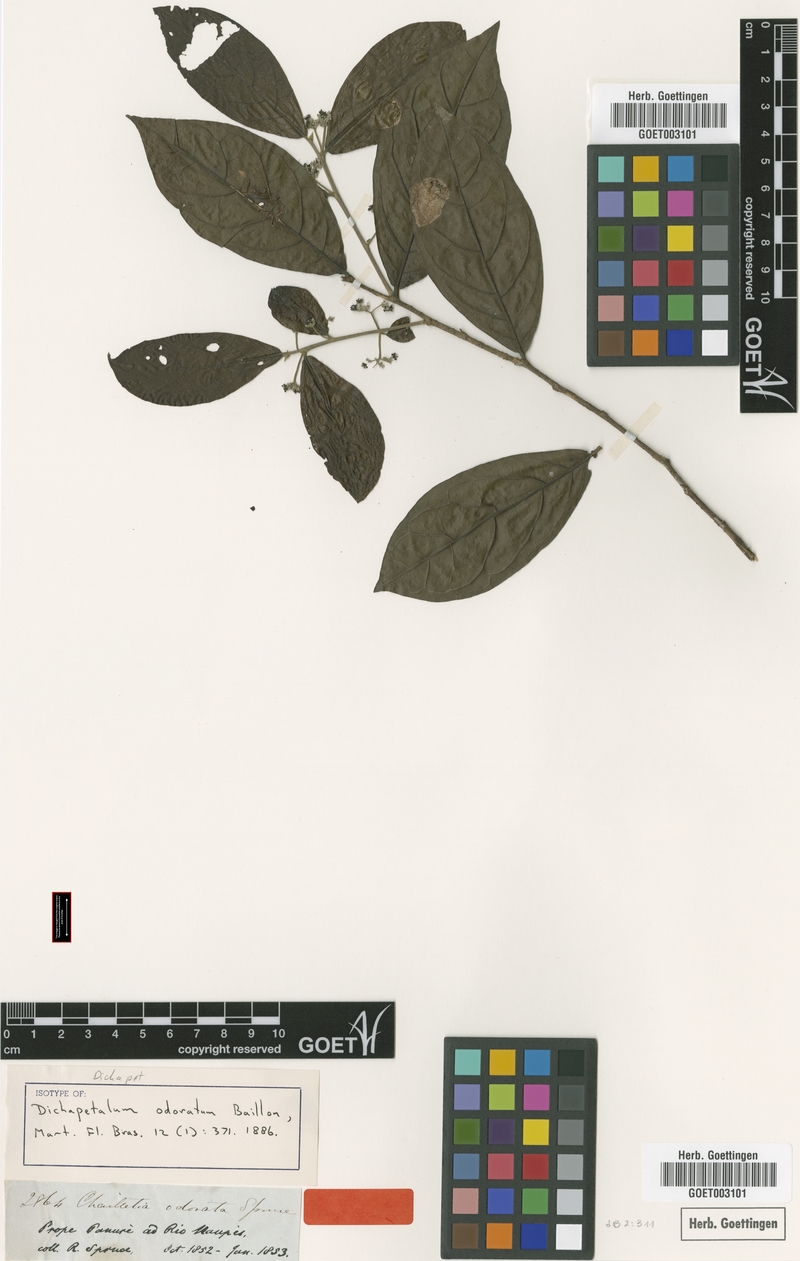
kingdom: Plantae
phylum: Tracheophyta
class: Magnoliopsida
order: Malpighiales
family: Dichapetalaceae
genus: Dichapetalum
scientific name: Dichapetalum odoratum
